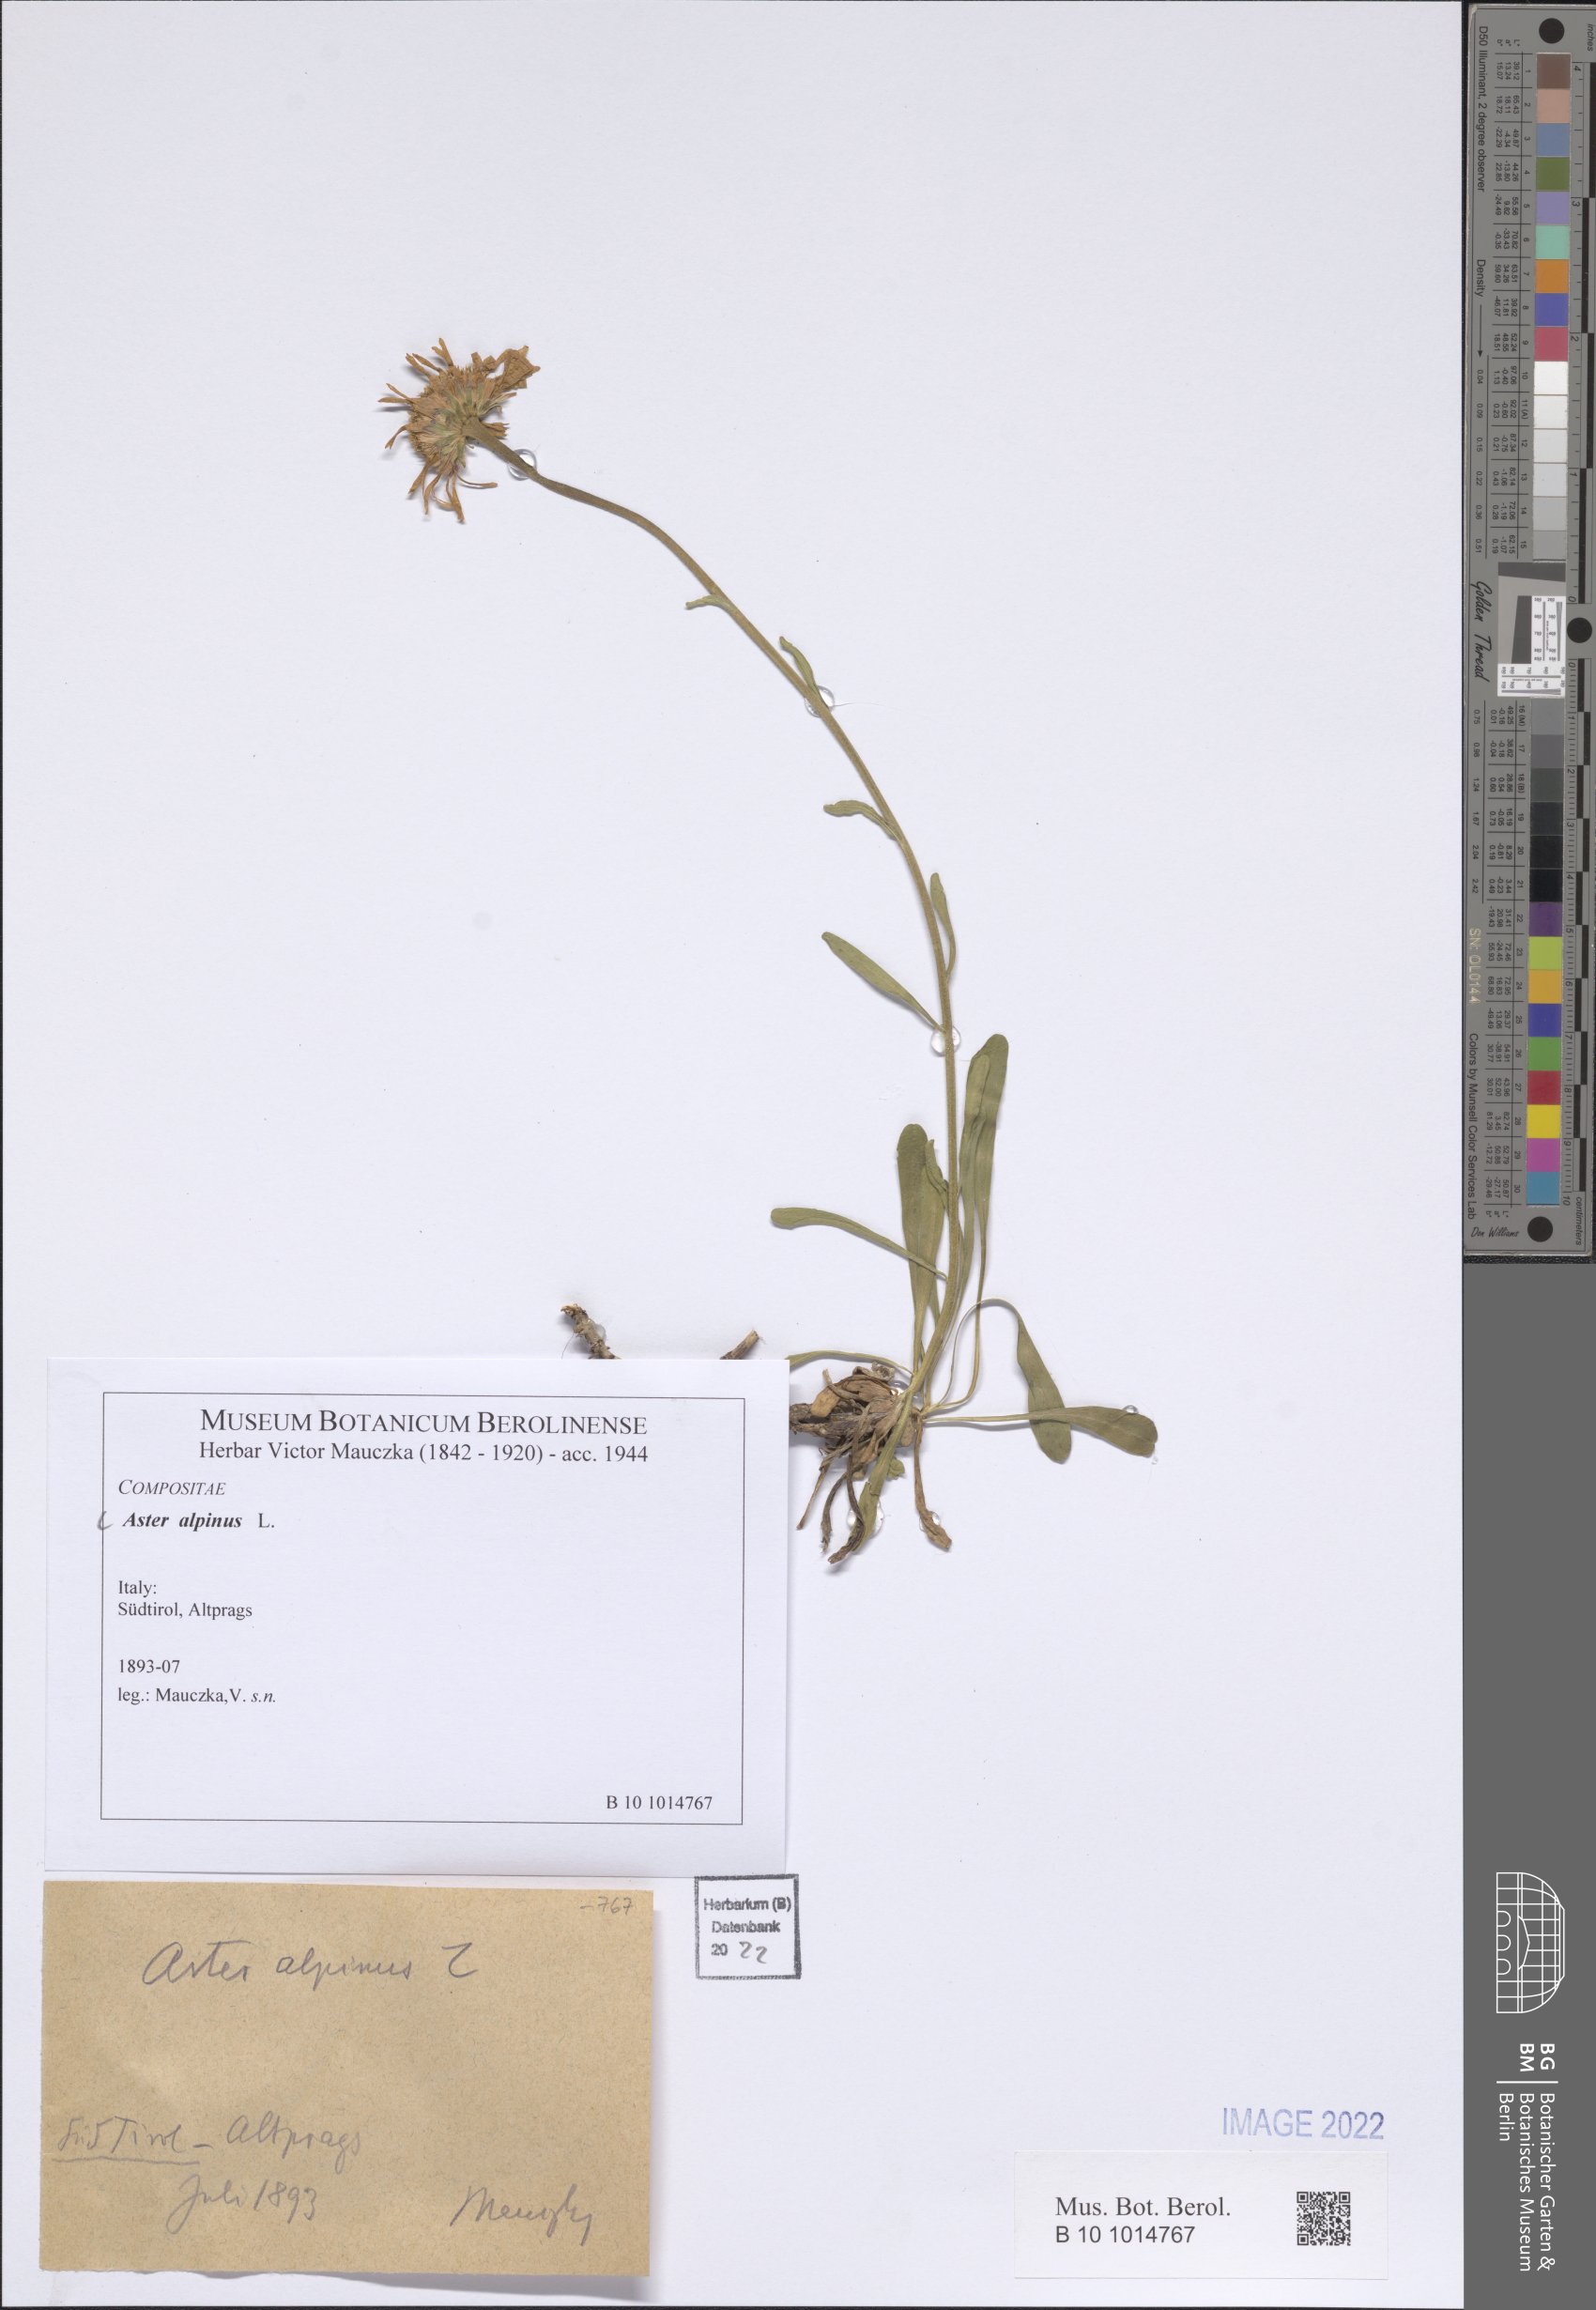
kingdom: Plantae
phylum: Tracheophyta
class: Magnoliopsida
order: Asterales
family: Asteraceae
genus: Aster
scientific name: Aster alpinus
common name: Alpine aster
